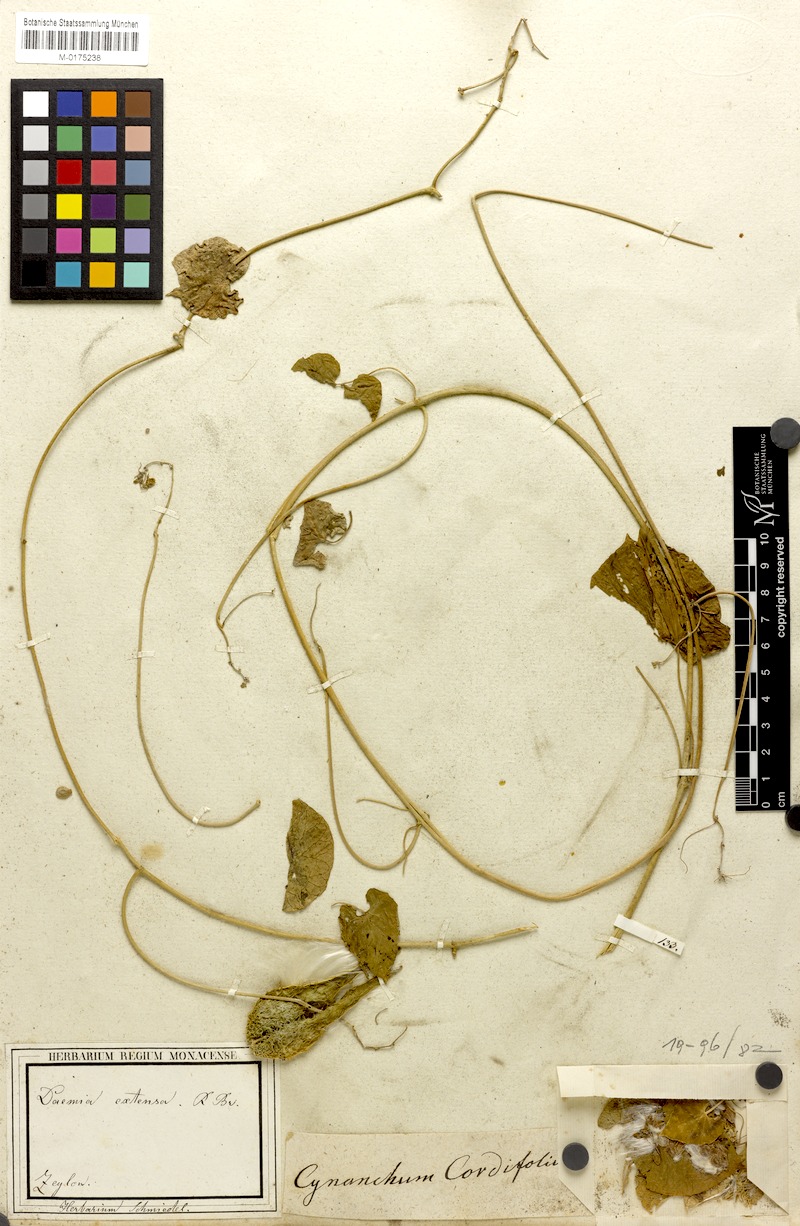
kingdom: Plantae
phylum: Tracheophyta
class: Magnoliopsida
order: Gentianales
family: Apocynaceae
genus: Pergularia
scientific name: Pergularia daemia
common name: Trellis-vine
